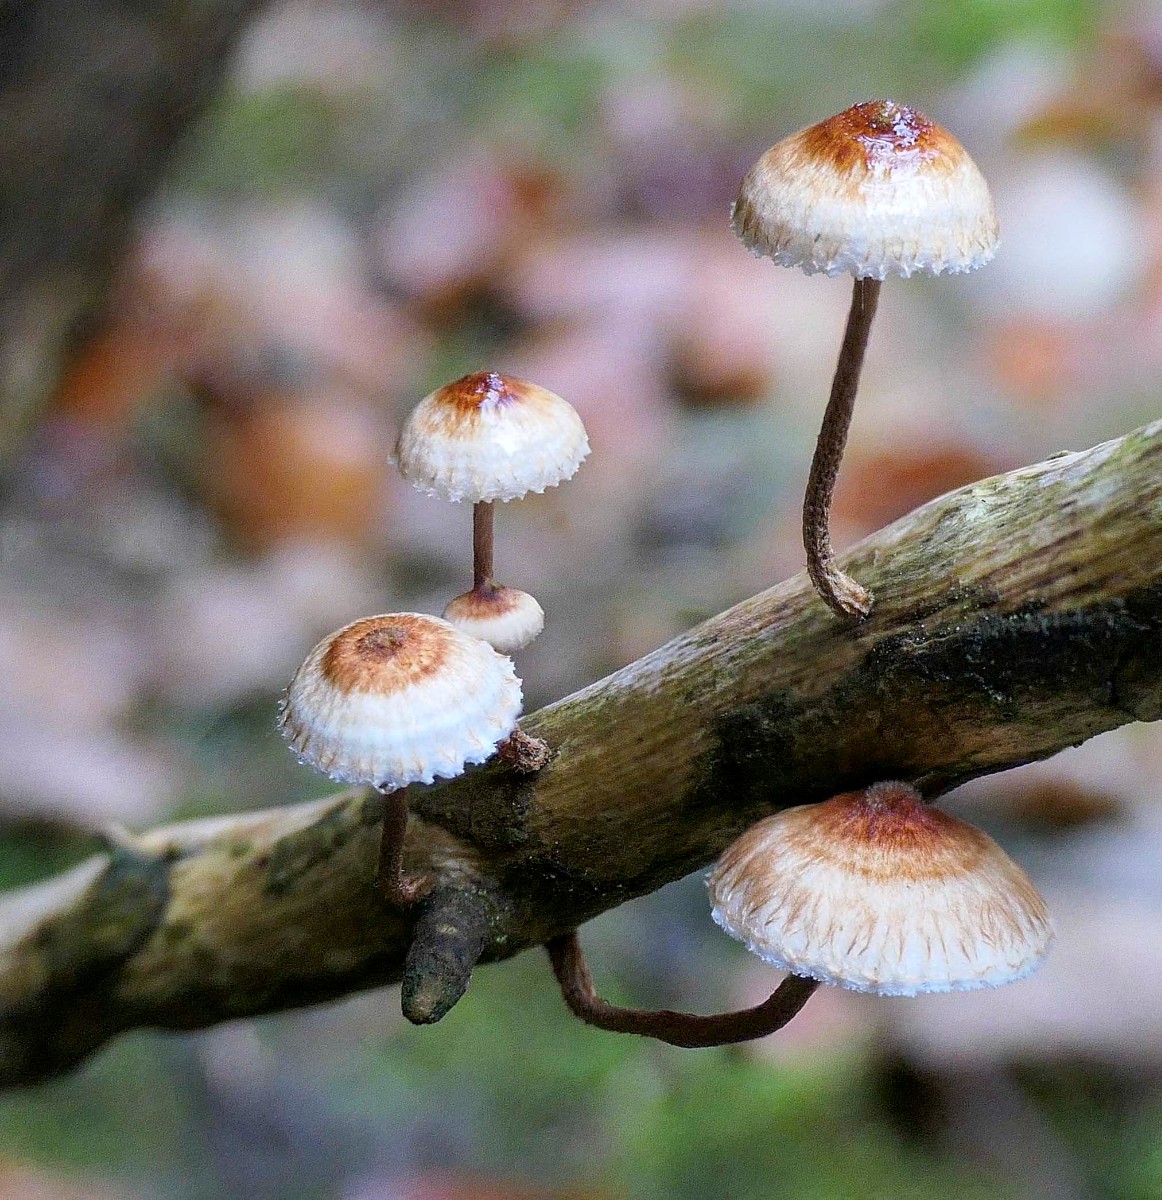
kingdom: Fungi
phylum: Basidiomycota
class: Agaricomycetes
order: Agaricales
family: Marasmiaceae
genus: Crinipellis
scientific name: Crinipellis scabella
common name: børstefod
